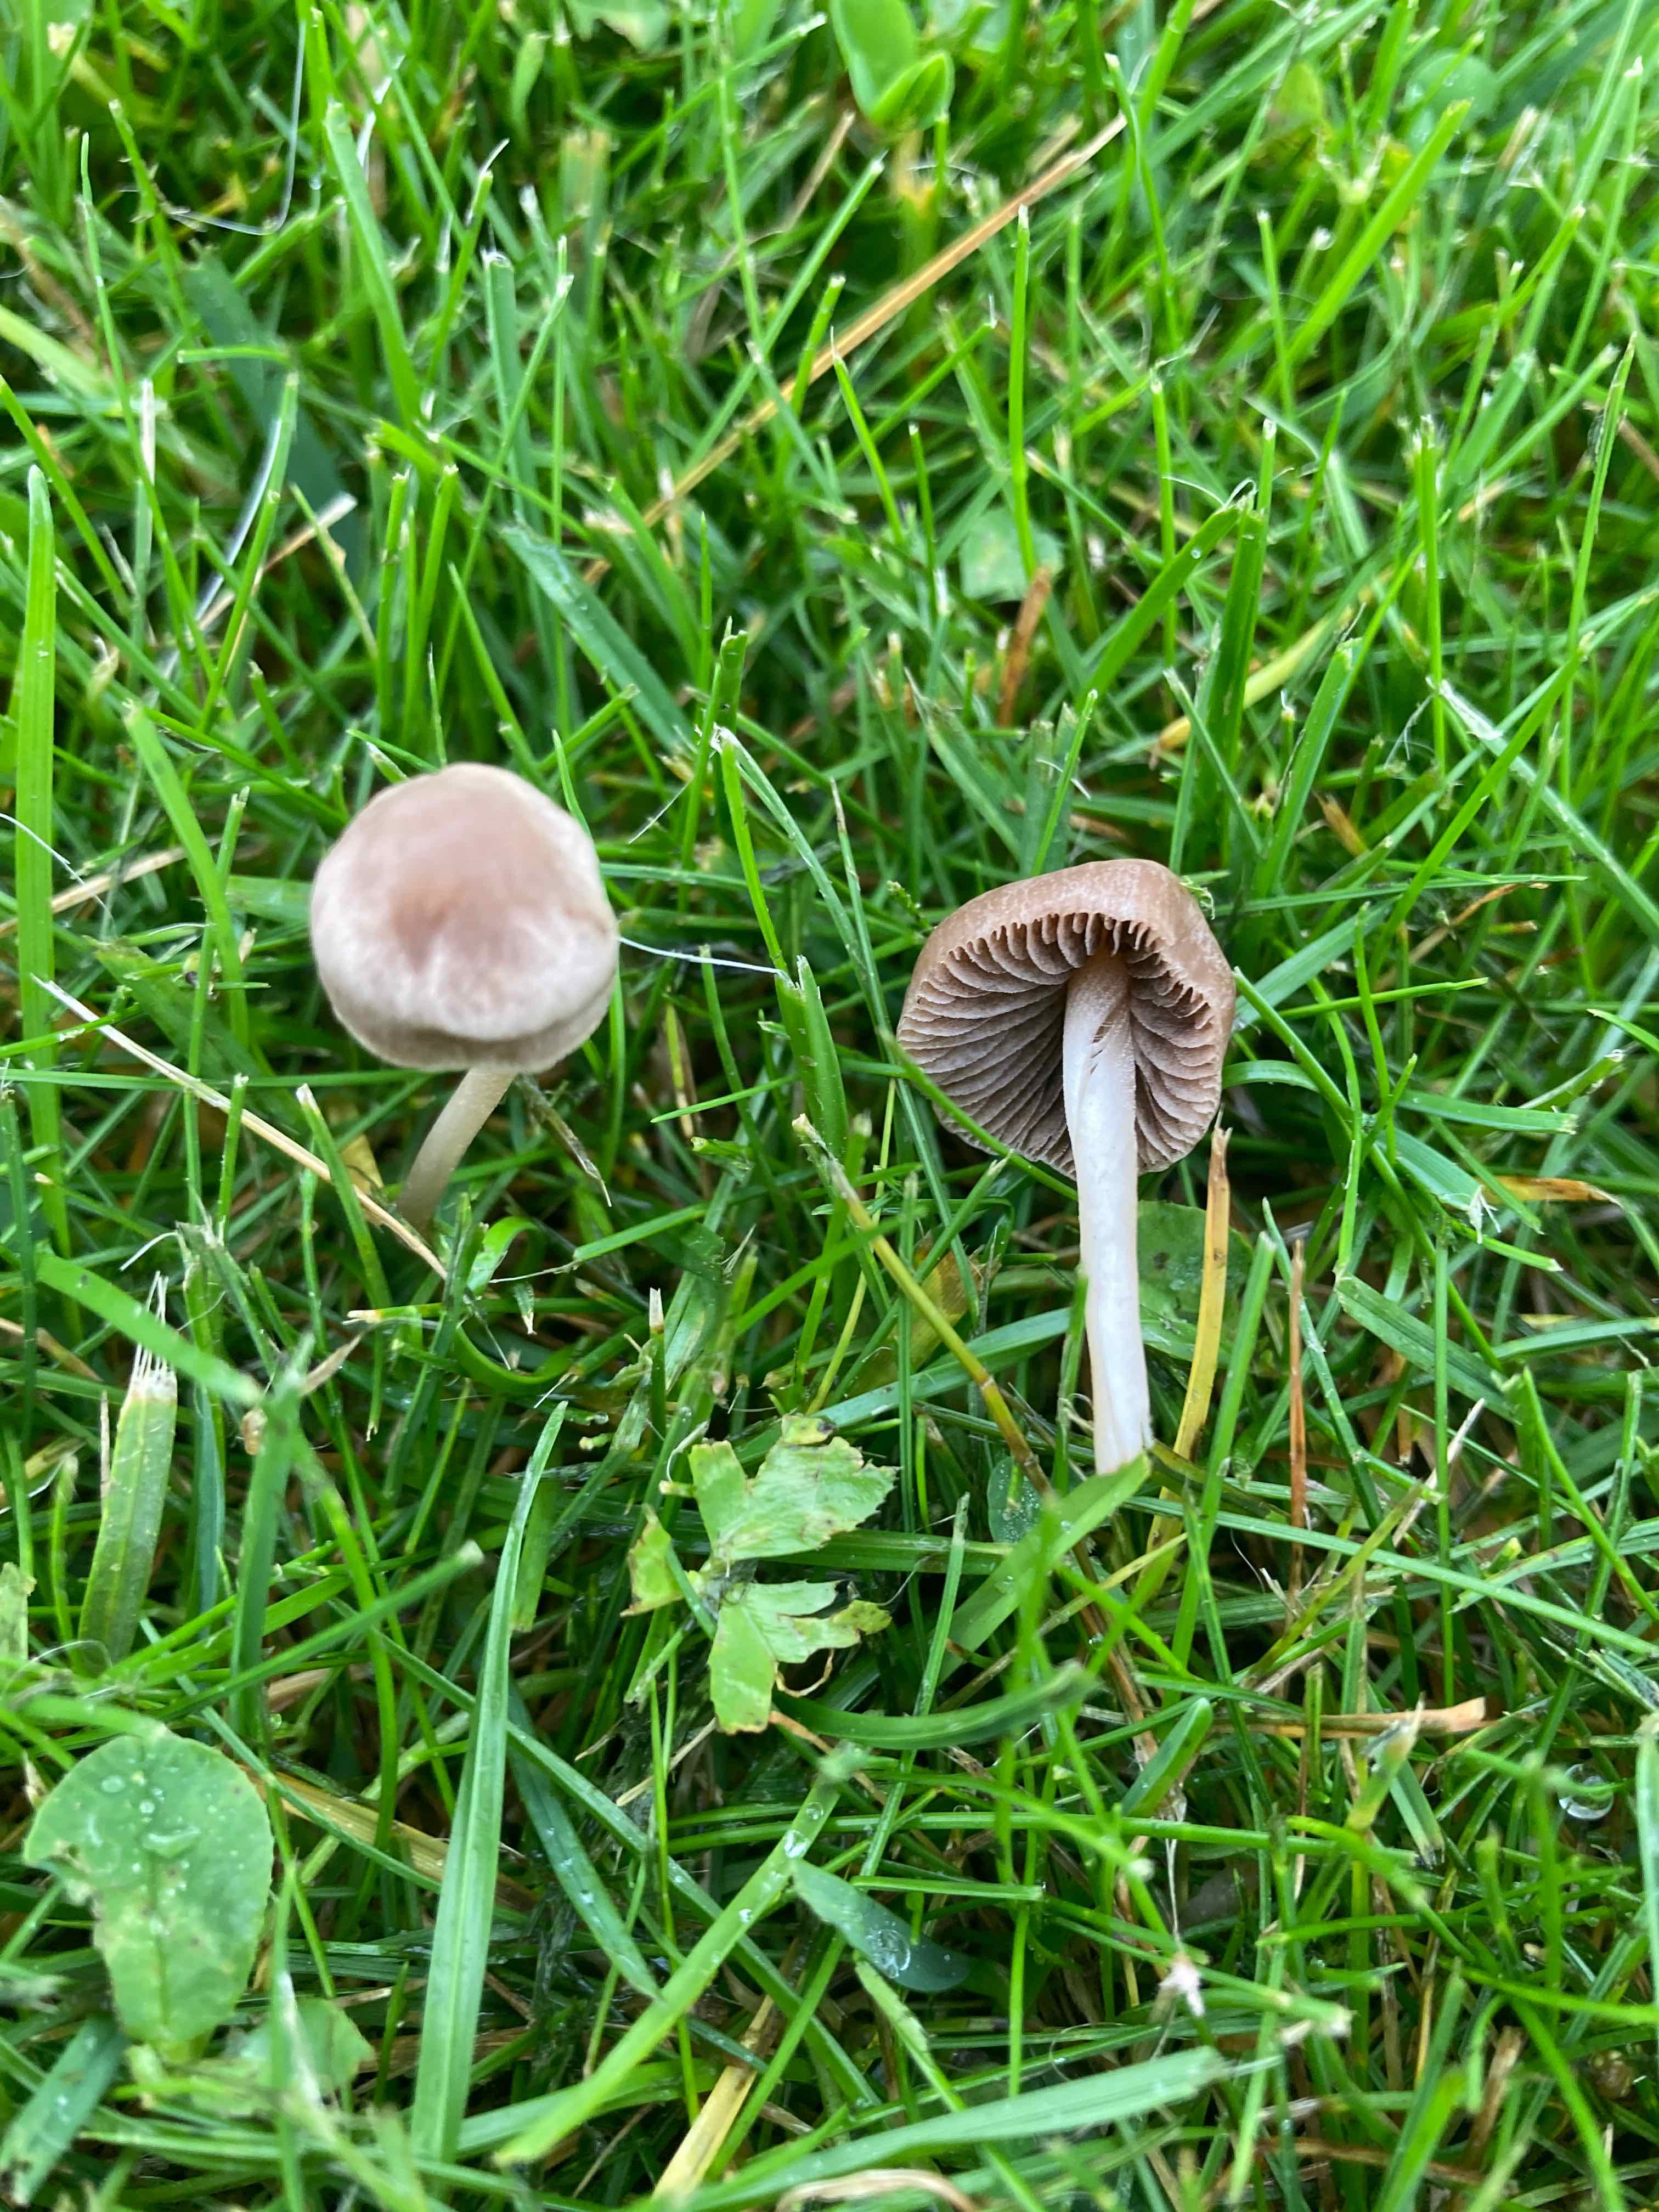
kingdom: Fungi
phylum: Basidiomycota
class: Agaricomycetes
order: Agaricales
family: Bolbitiaceae
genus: Panaeolina
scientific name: Panaeolina foenisecii
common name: høslætsvamp
